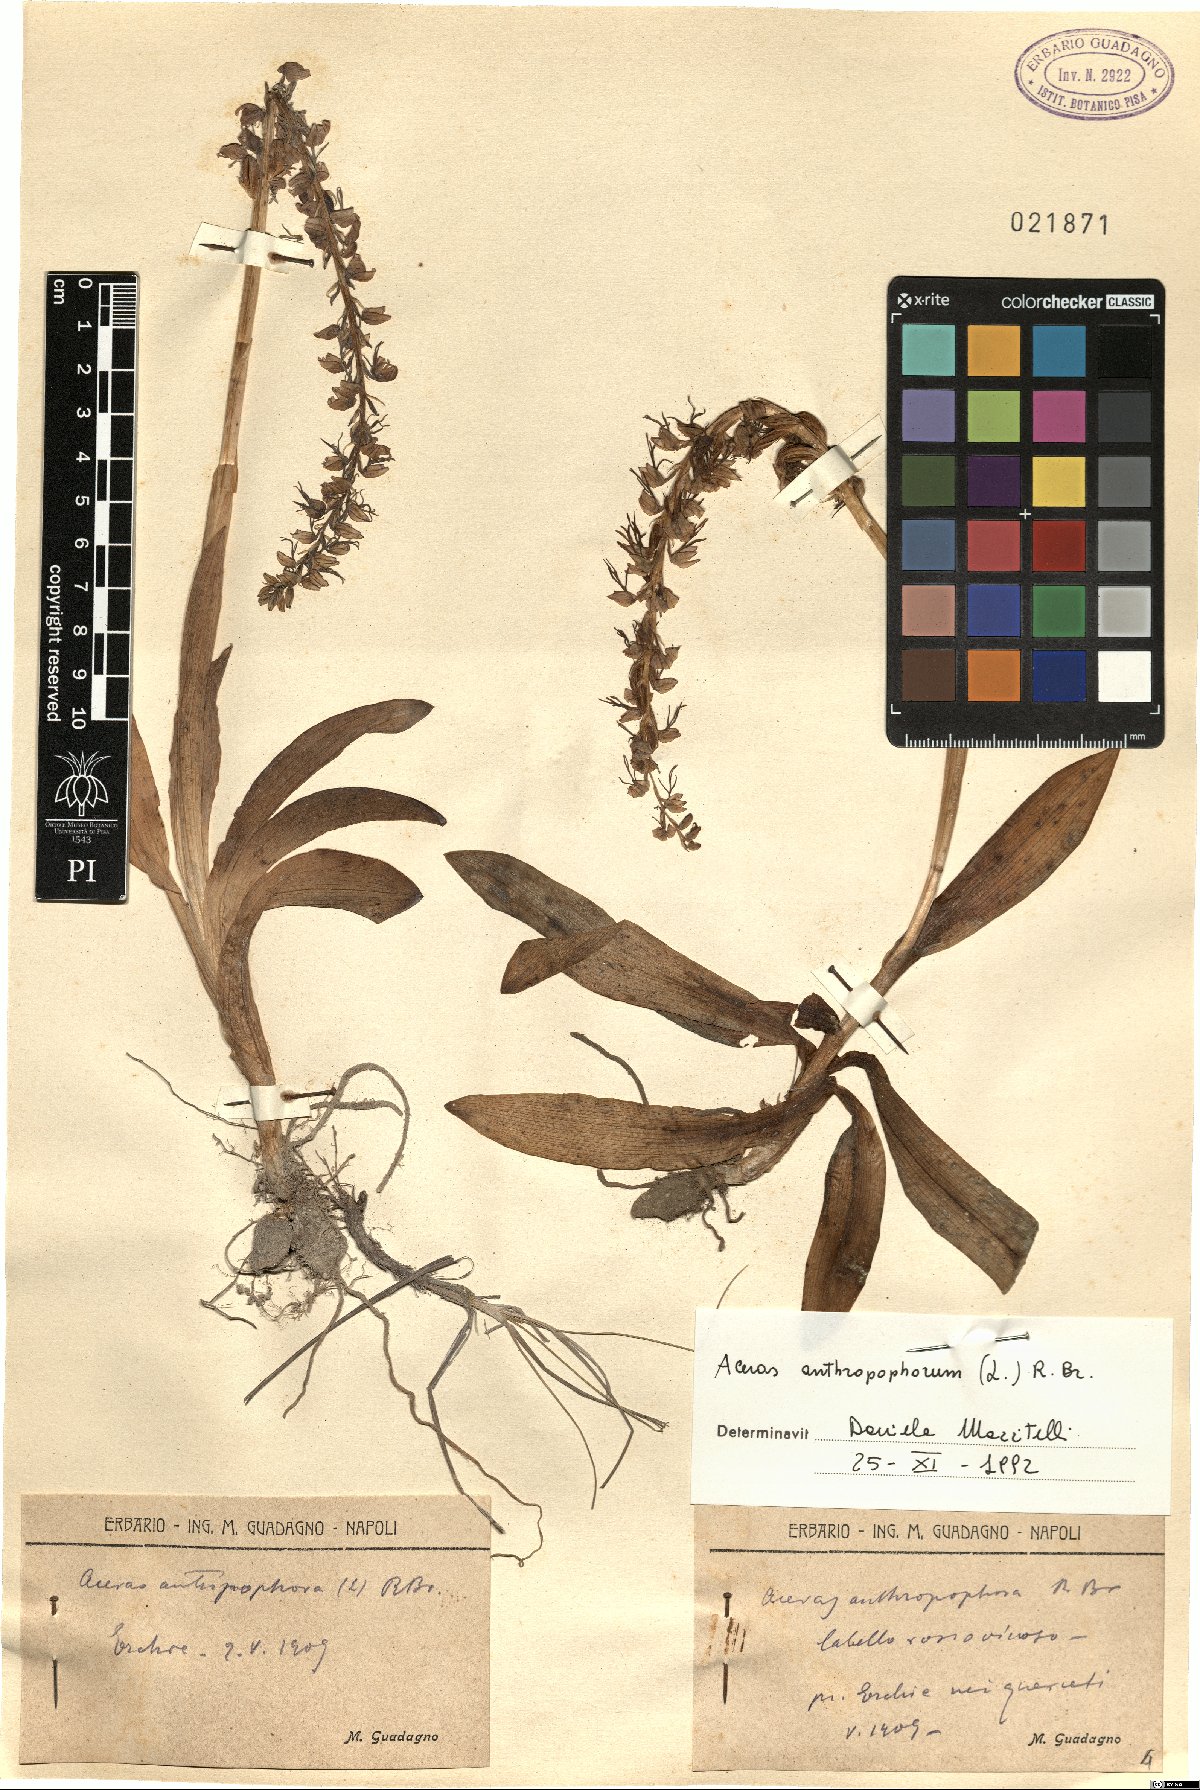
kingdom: Plantae
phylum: Tracheophyta
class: Liliopsida
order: Asparagales
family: Orchidaceae
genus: Orchis
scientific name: Orchis anthropophora
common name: Man orchid
